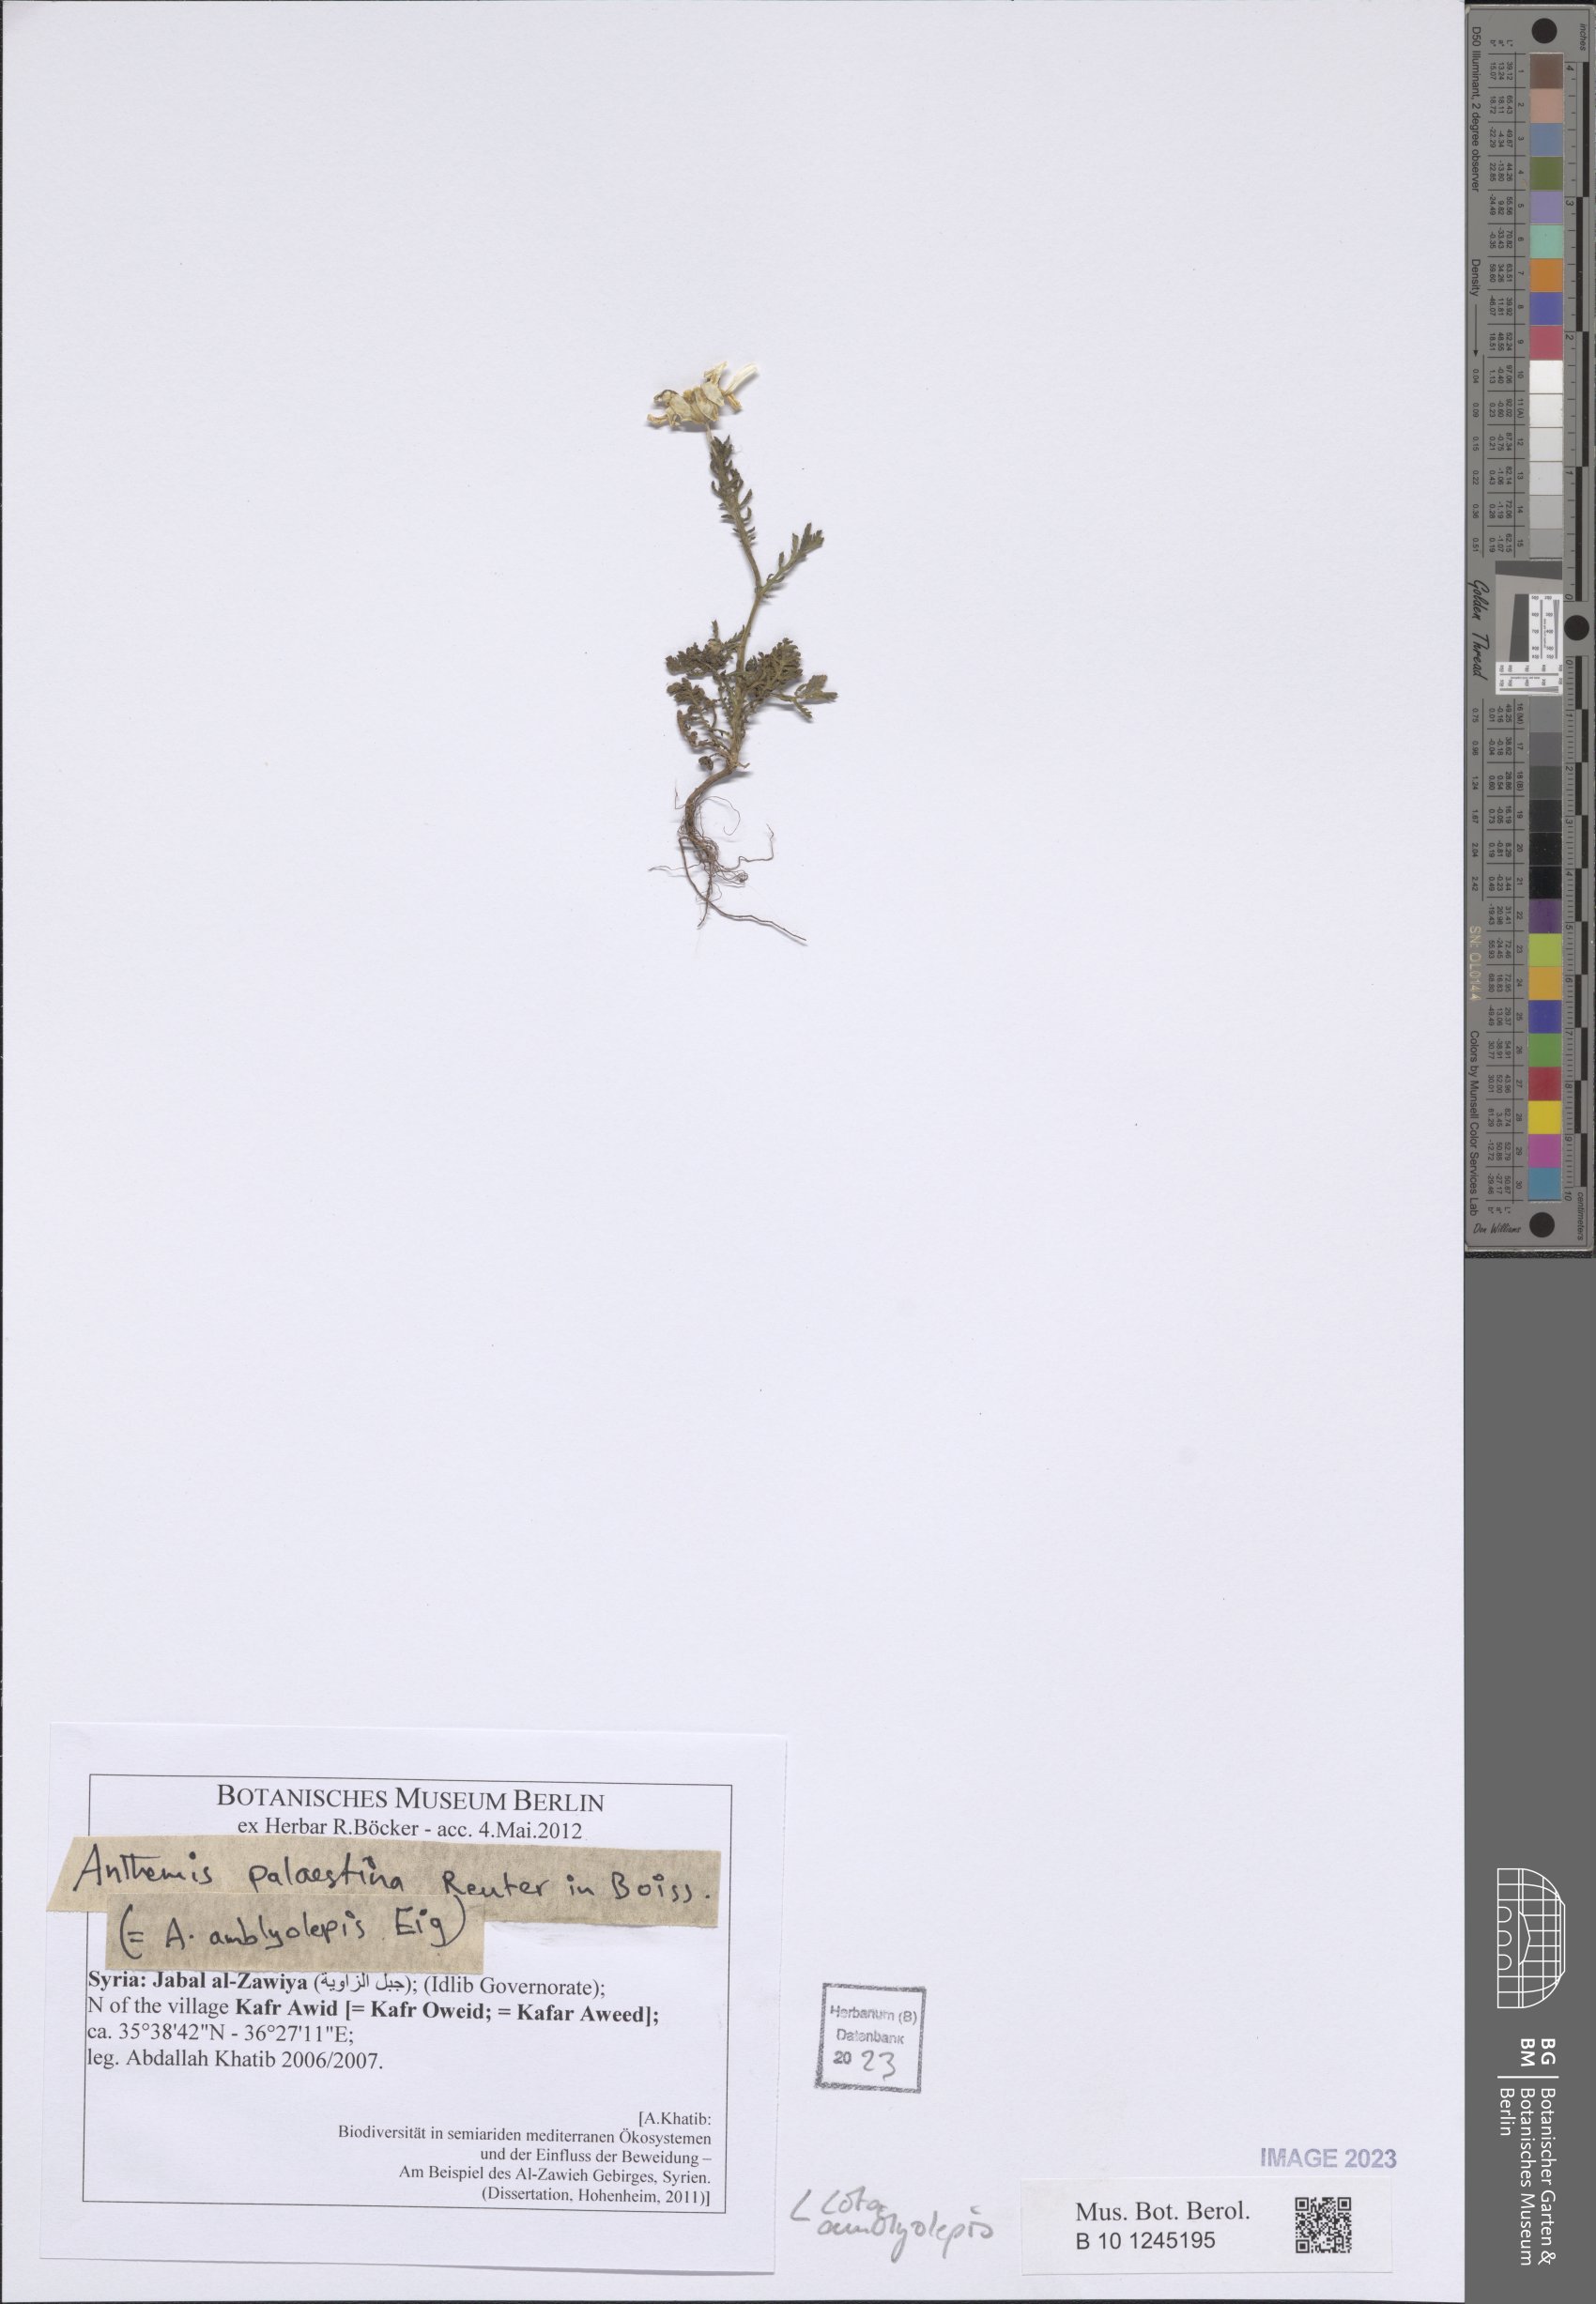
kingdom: Plantae
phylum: Tracheophyta
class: Magnoliopsida
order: Asterales
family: Asteraceae
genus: Cota
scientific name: Cota amblyolepis
